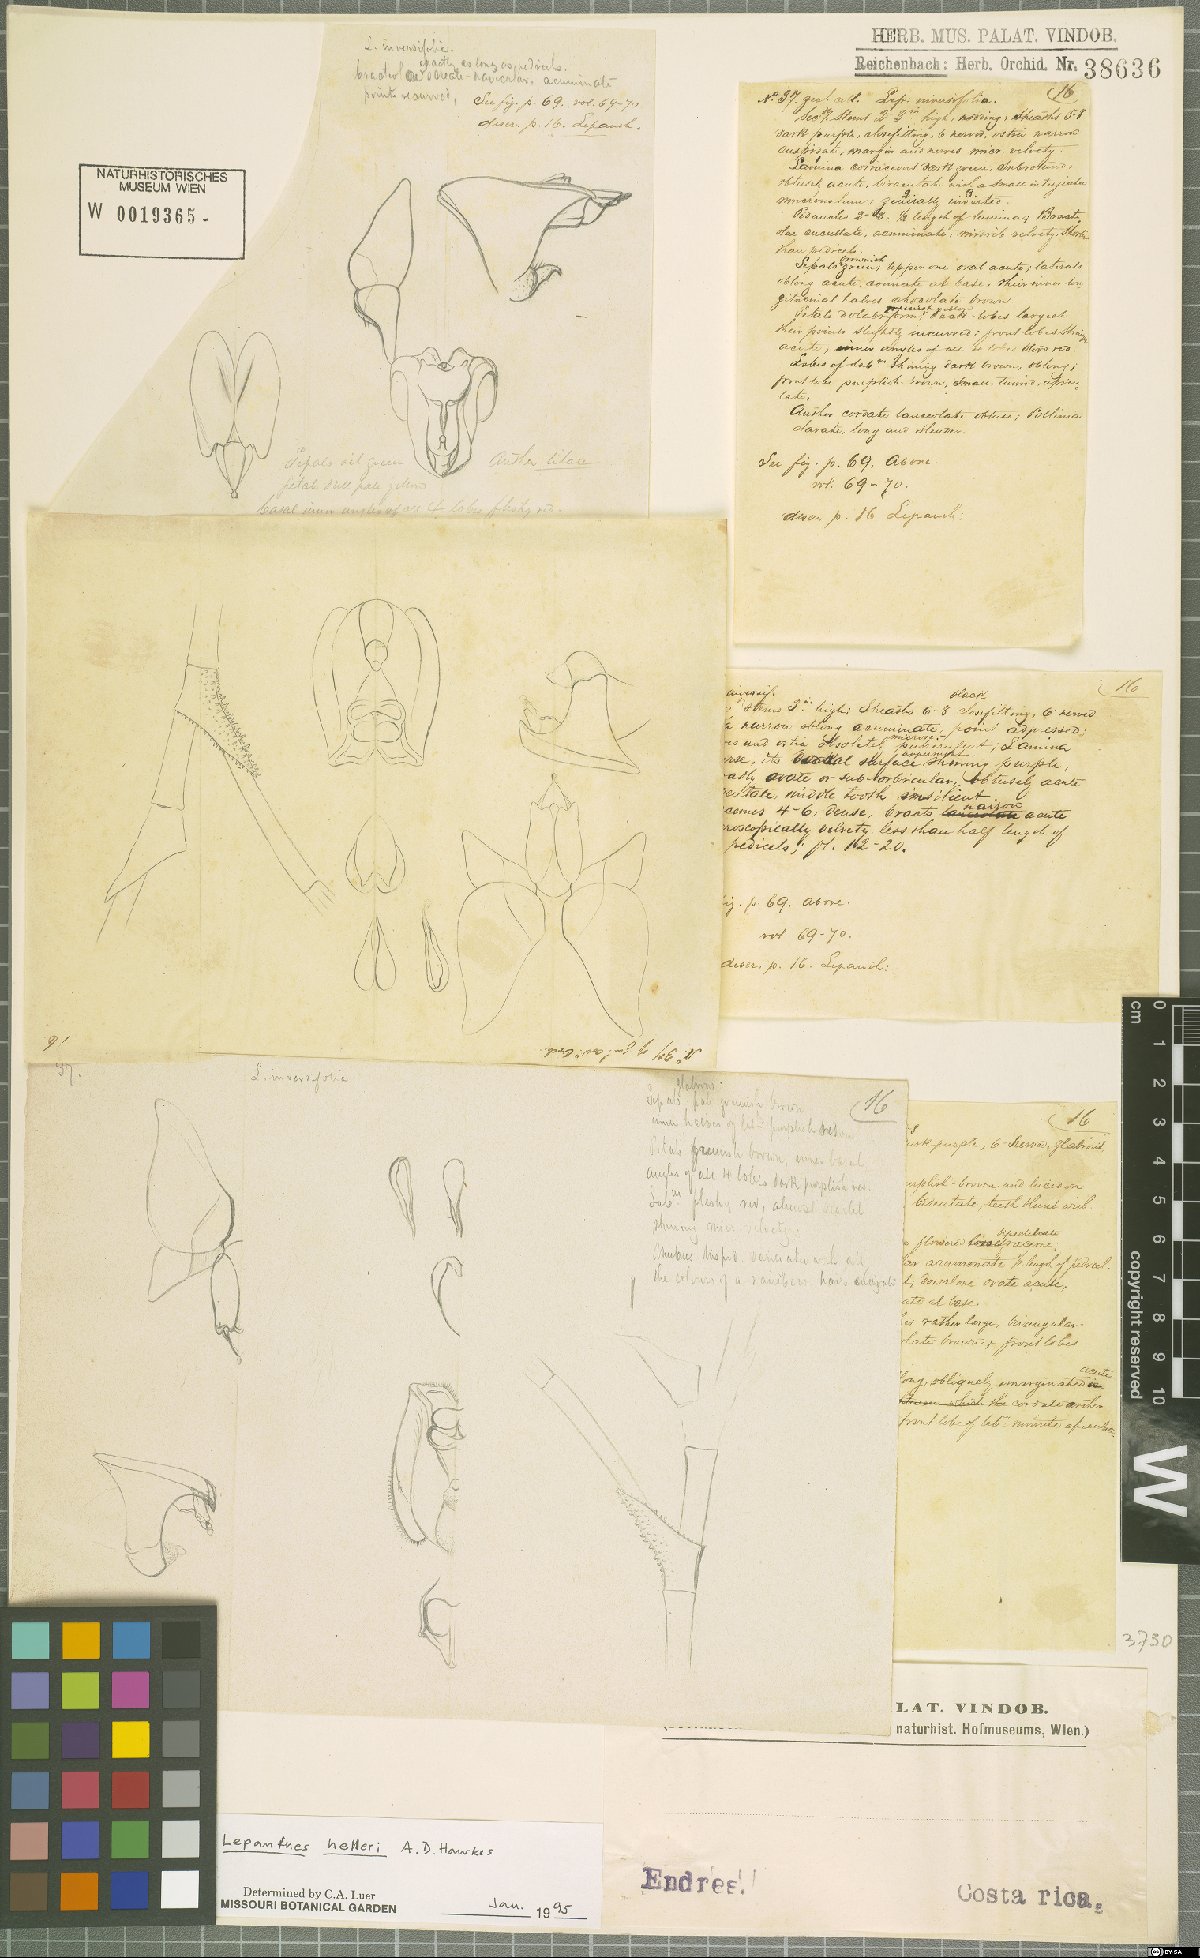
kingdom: Plantae
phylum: Tracheophyta
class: Liliopsida
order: Asparagales
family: Orchidaceae
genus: Lepanthes
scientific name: Lepanthes helleri
